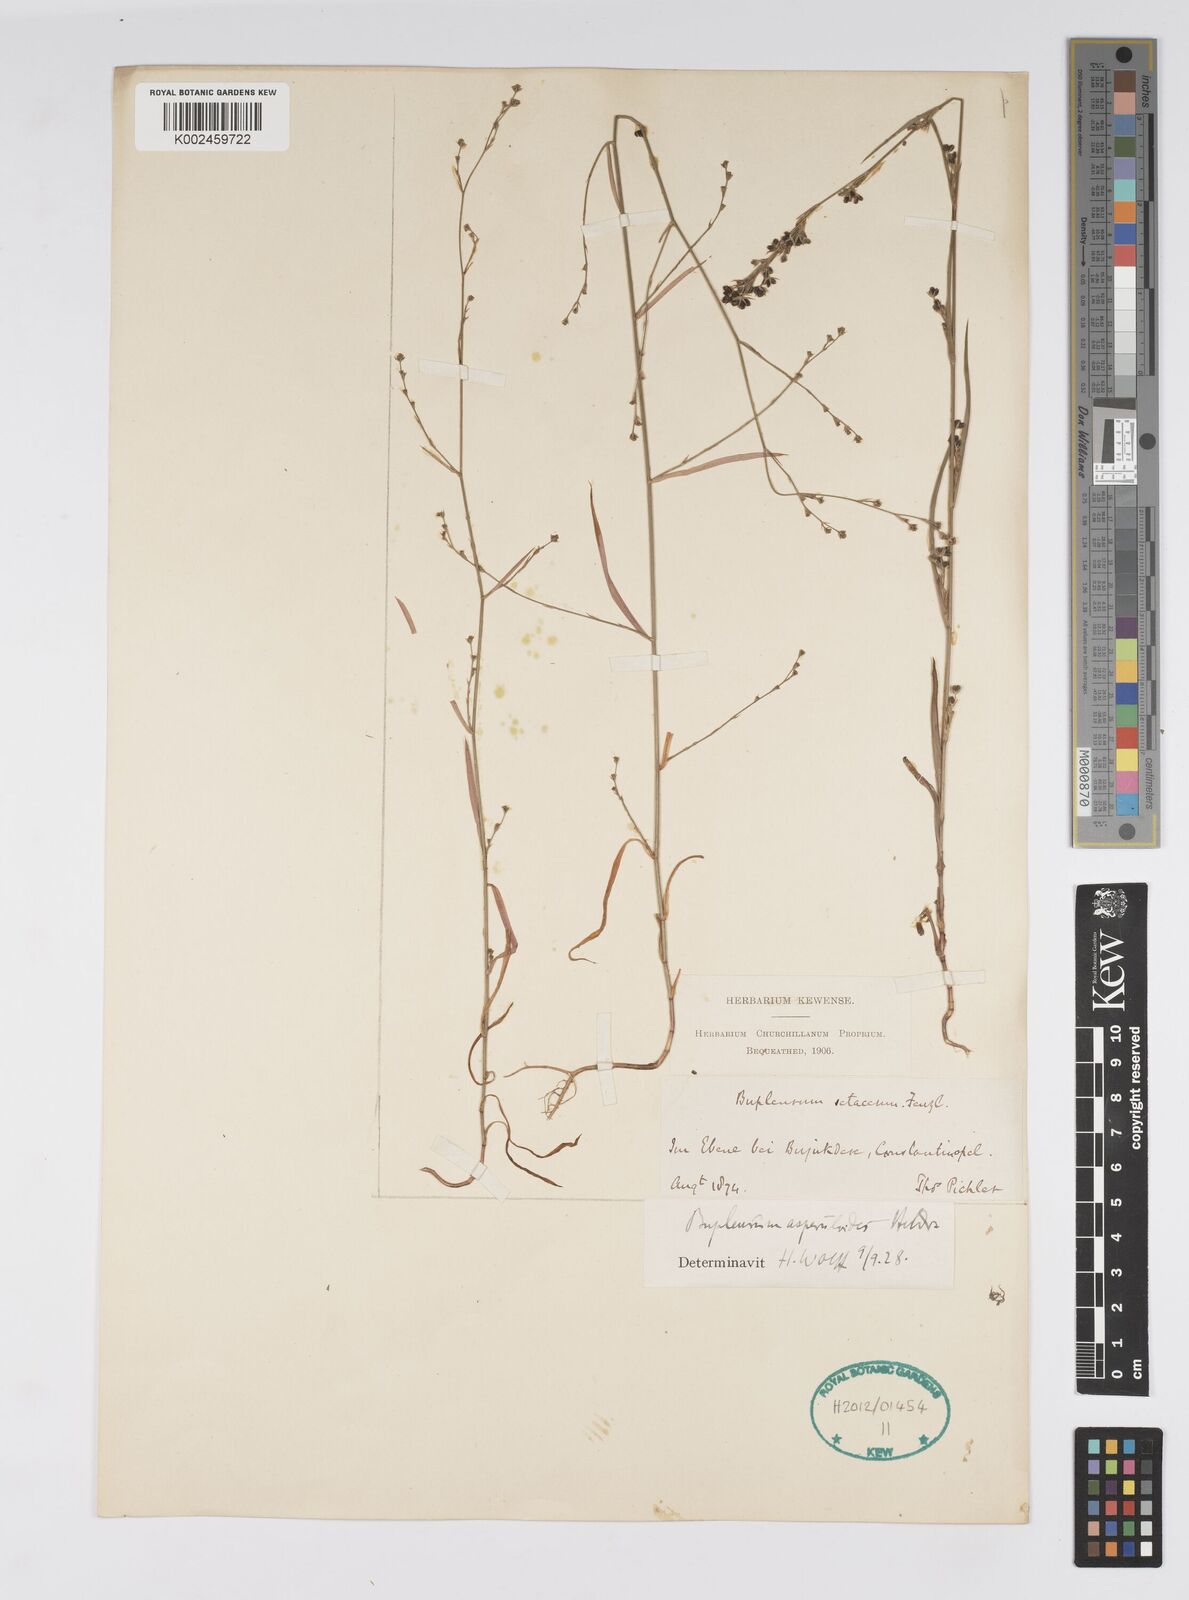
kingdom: Plantae
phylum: Tracheophyta
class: Magnoliopsida
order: Apiales
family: Apiaceae
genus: Bupleurum
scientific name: Bupleurum asperuloides
